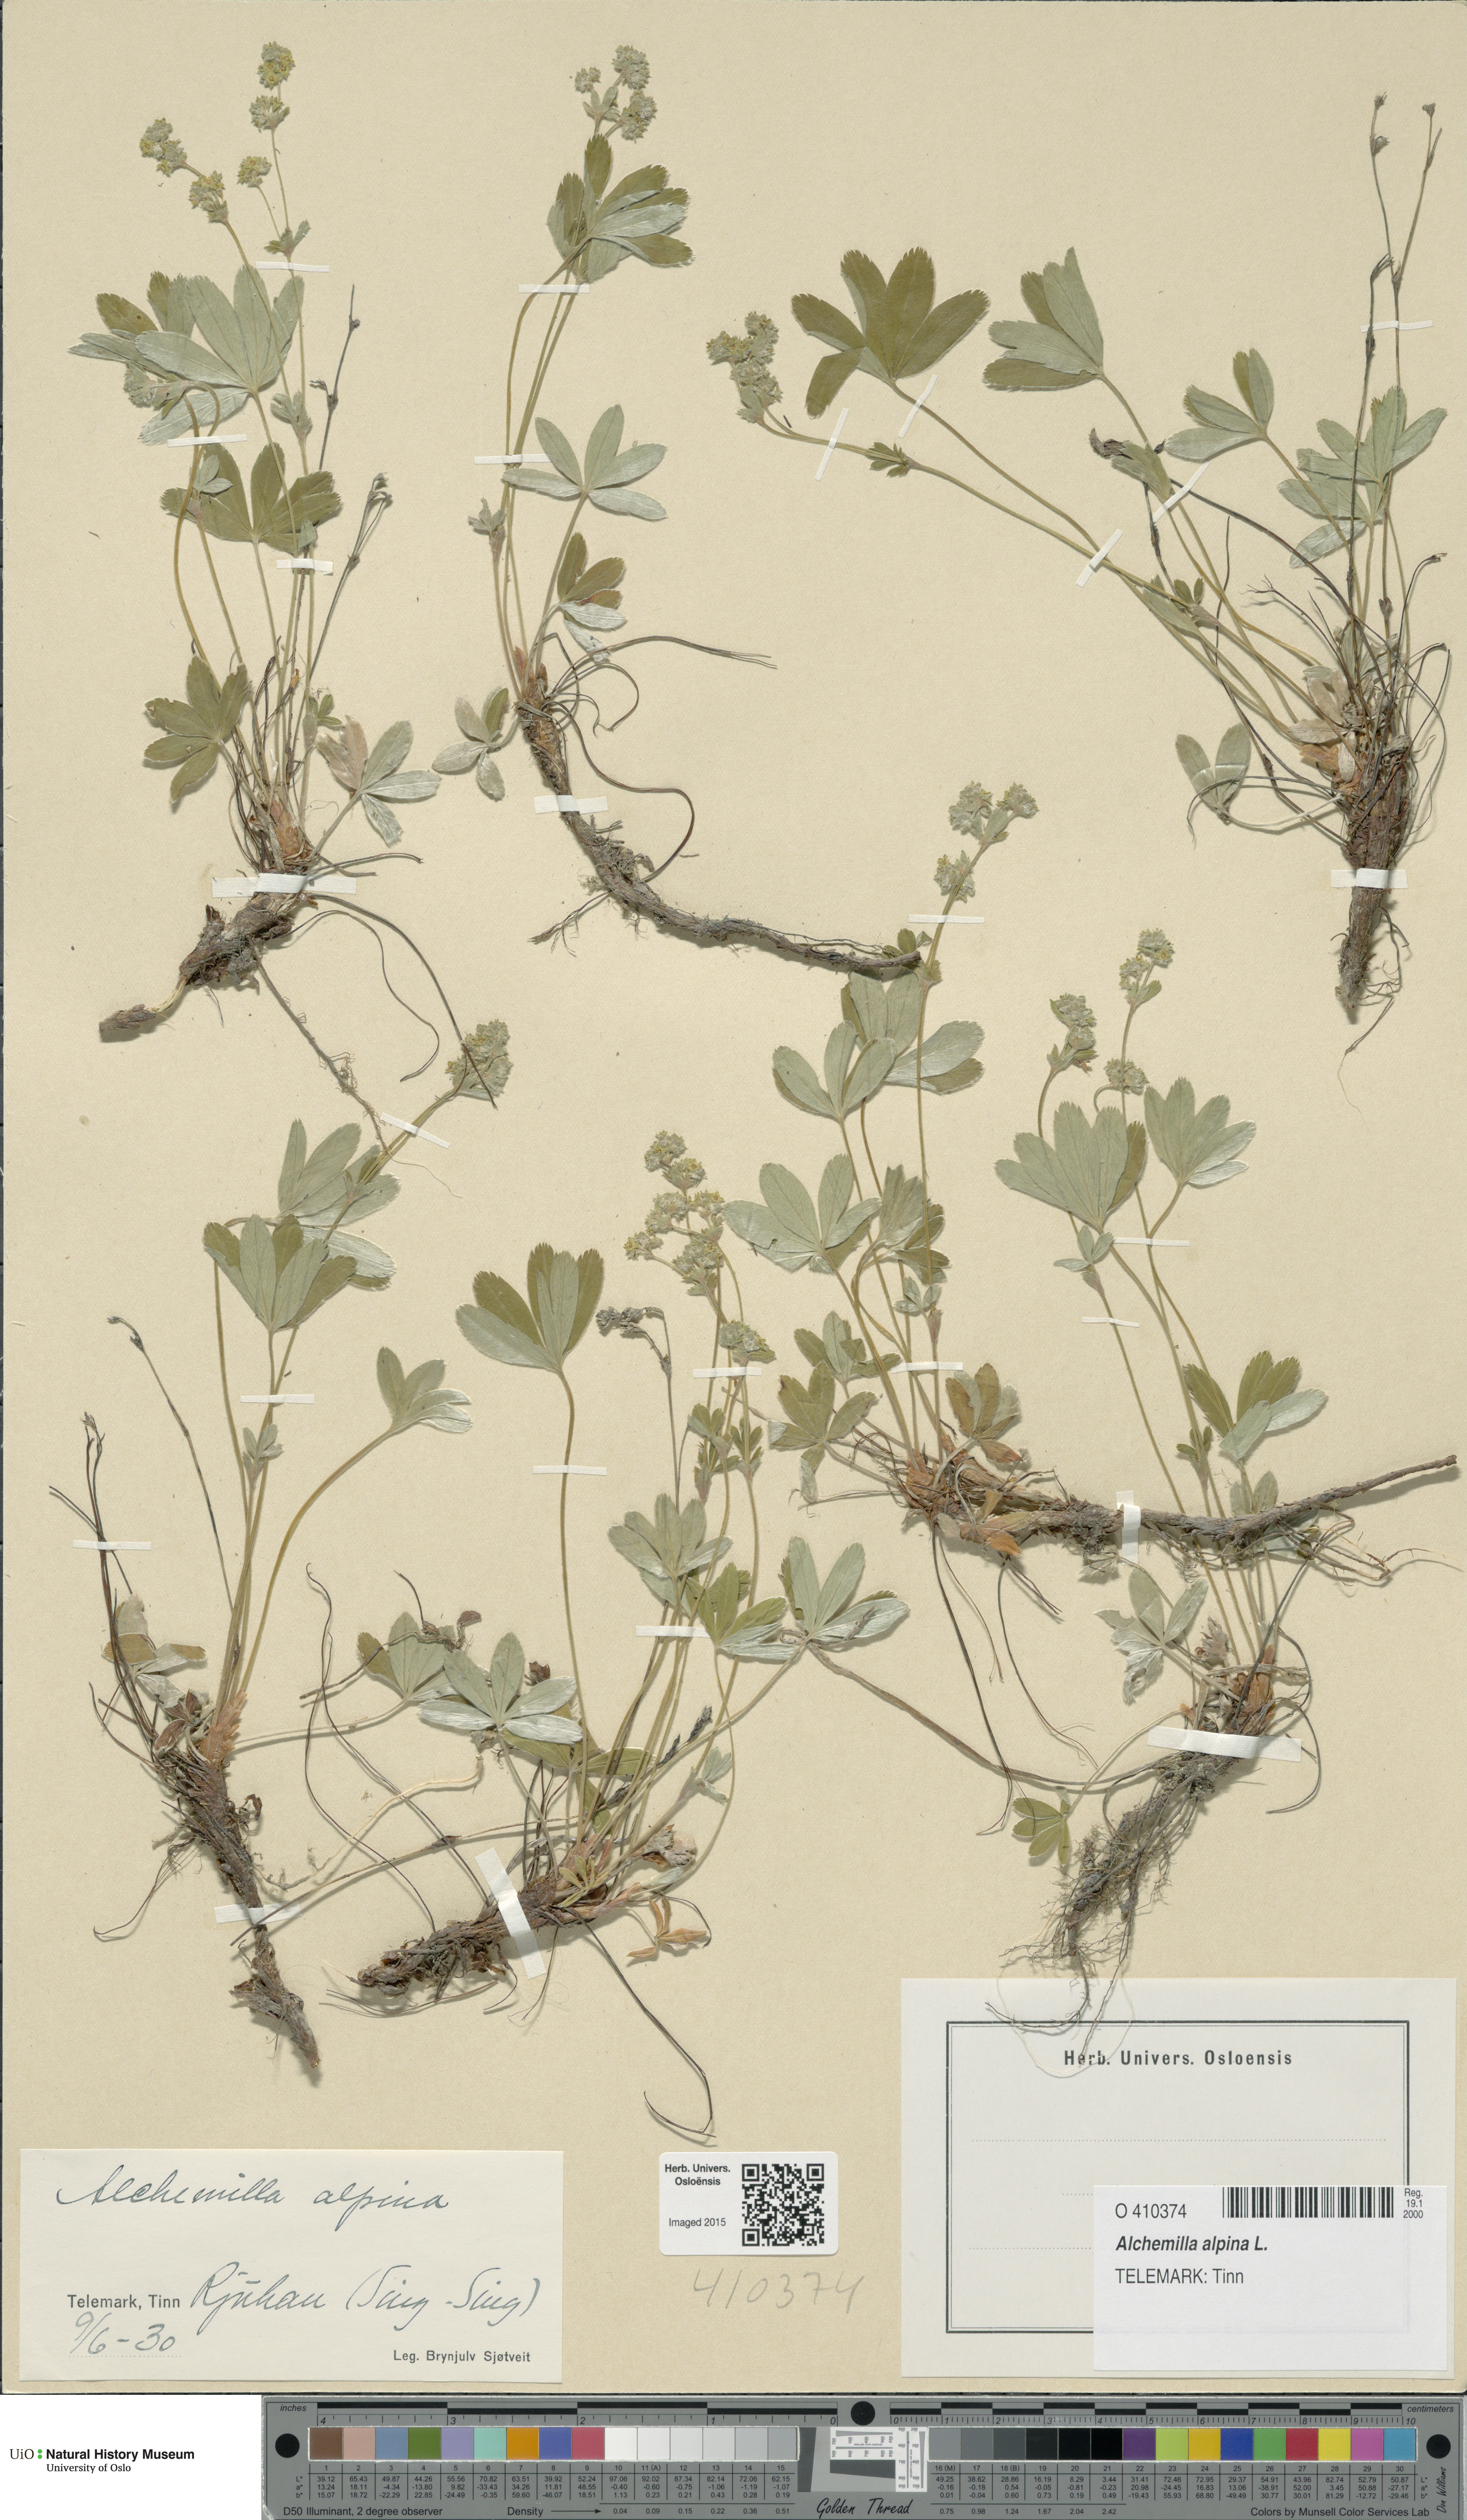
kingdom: Plantae
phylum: Tracheophyta
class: Magnoliopsida
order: Rosales
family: Rosaceae
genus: Alchemilla
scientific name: Alchemilla alpina
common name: Alpine lady's-mantle
